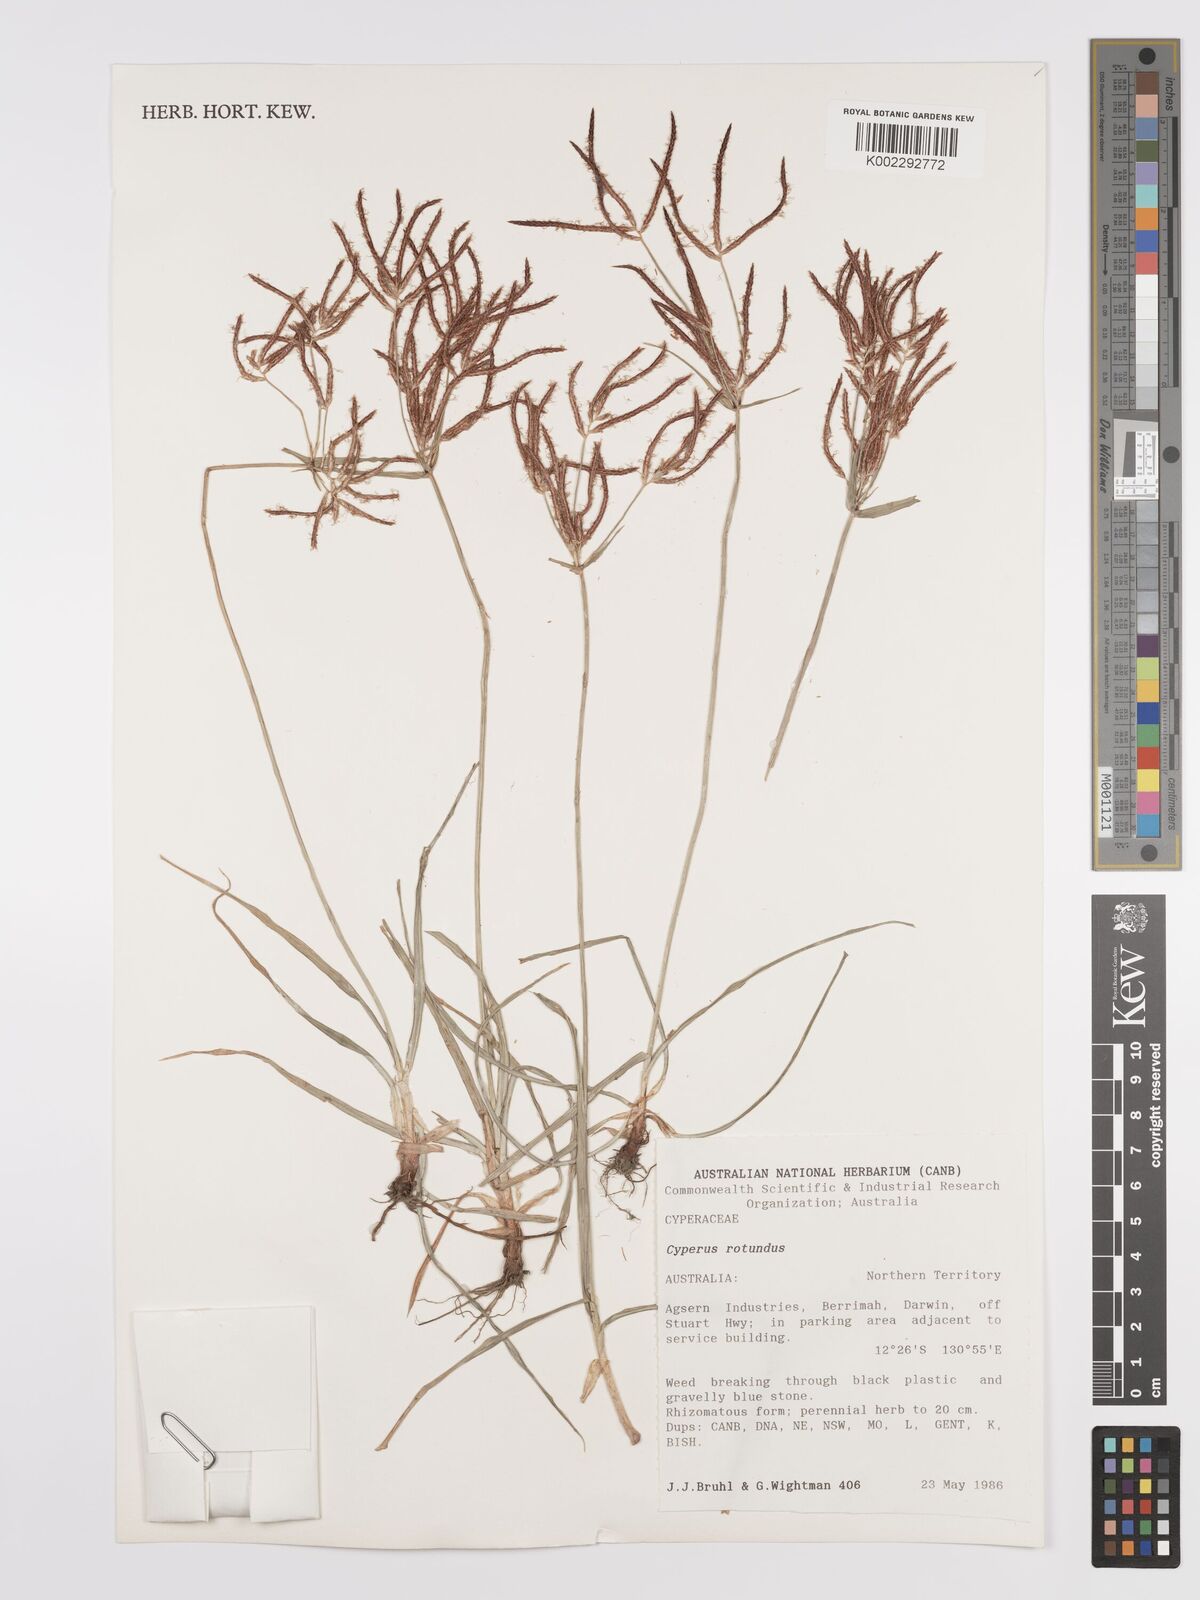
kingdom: Plantae
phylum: Tracheophyta
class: Liliopsida
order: Poales
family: Cyperaceae
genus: Cyperus
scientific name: Cyperus rotundus
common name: Nutgrass
